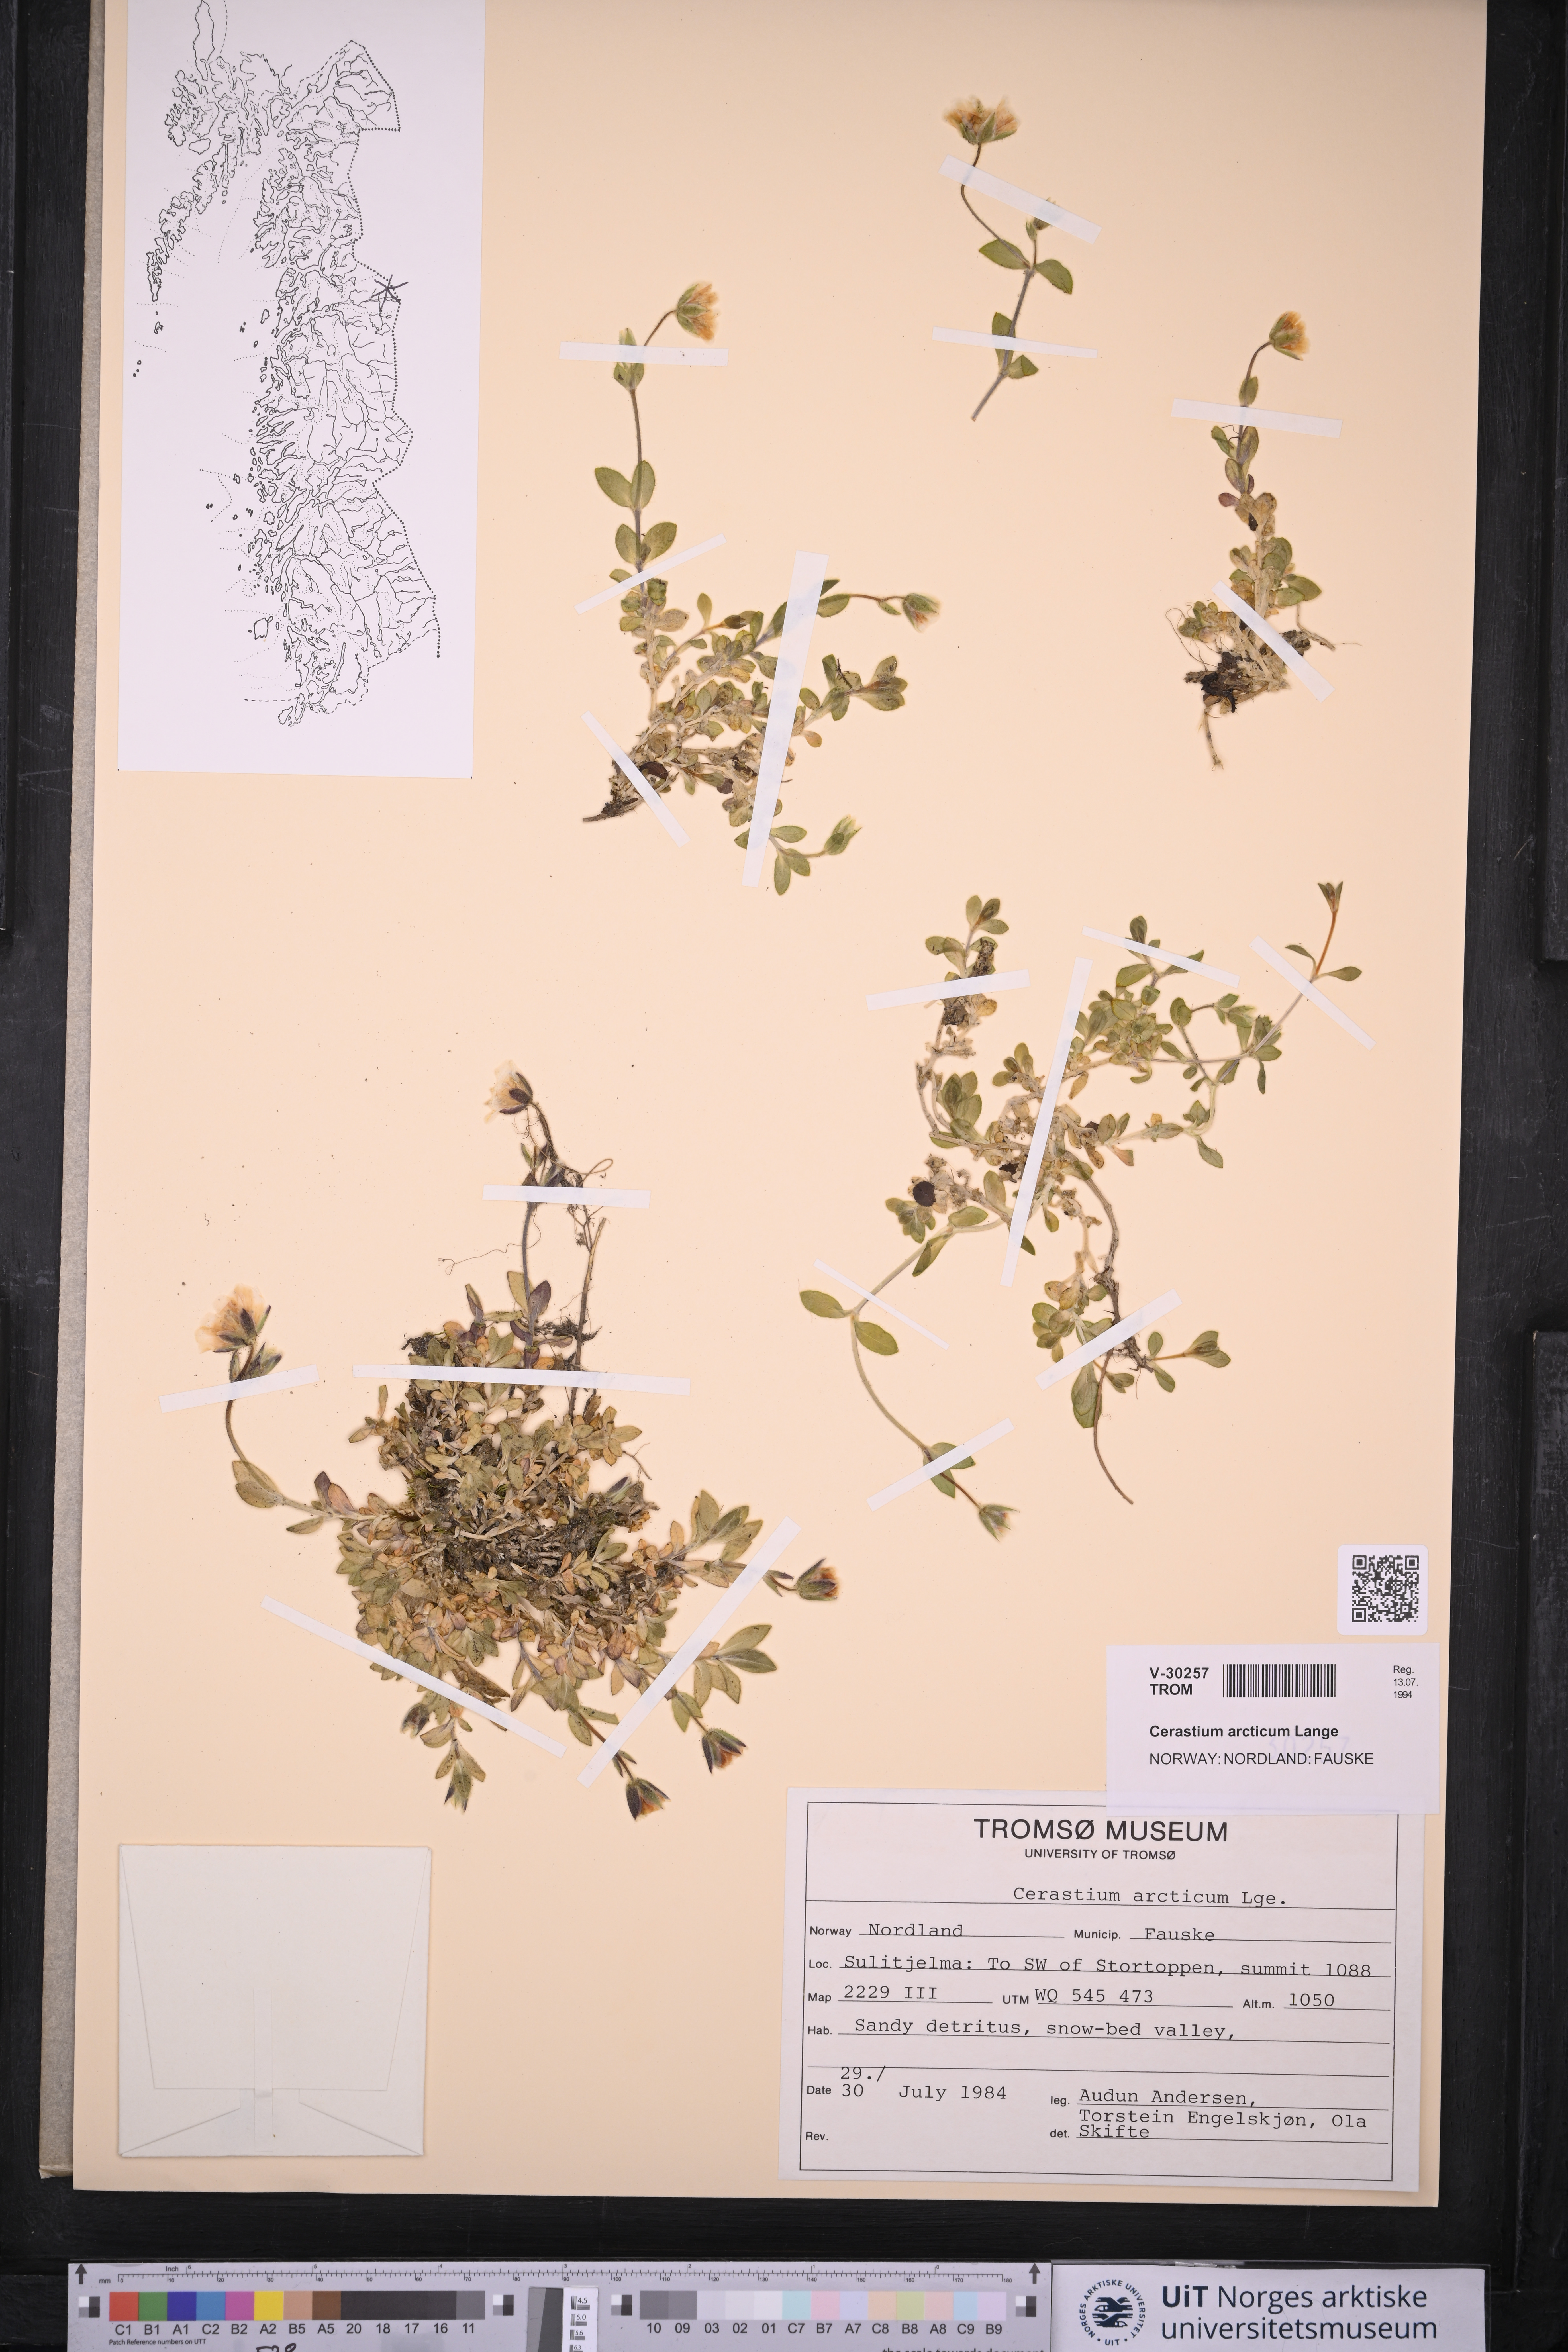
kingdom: Plantae
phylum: Tracheophyta
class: Magnoliopsida
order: Caryophyllales
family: Caryophyllaceae
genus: Cerastium
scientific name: Cerastium arcticum
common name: Arctic mouse-ear
